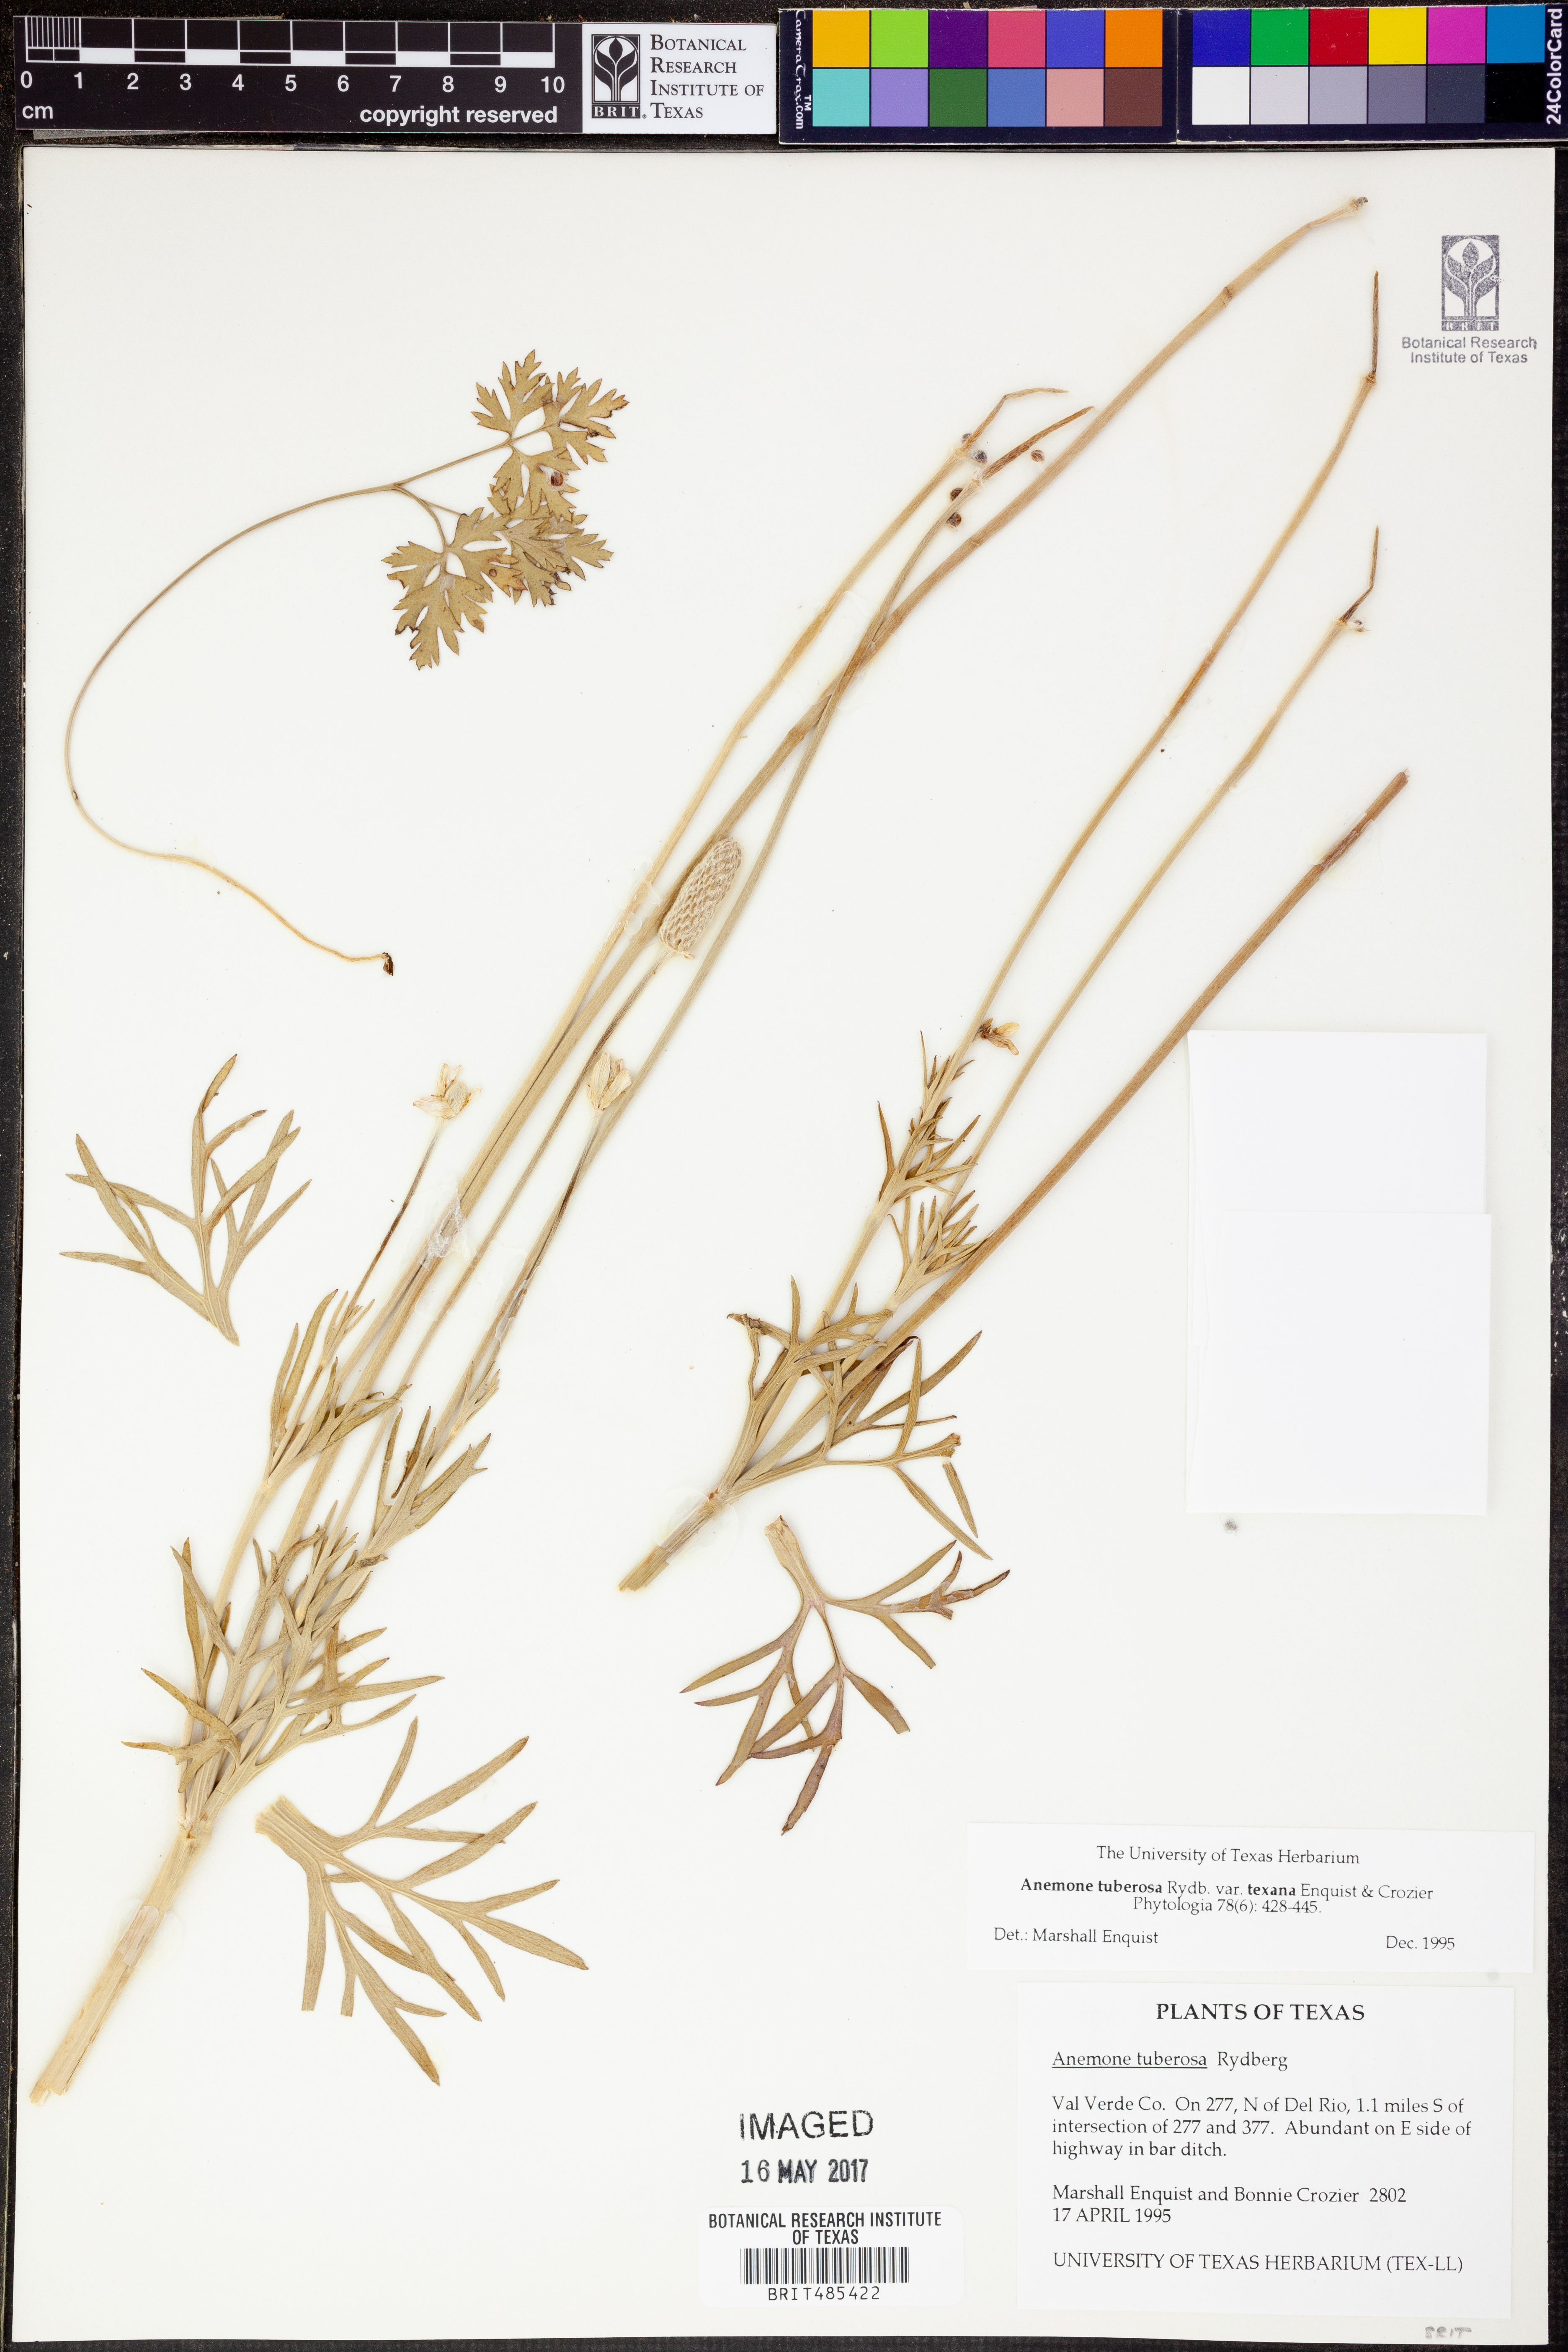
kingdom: Plantae
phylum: Tracheophyta
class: Magnoliopsida
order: Ranunculales
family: Ranunculaceae
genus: Anemone
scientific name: Anemone tuberosa
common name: Desert anemone
